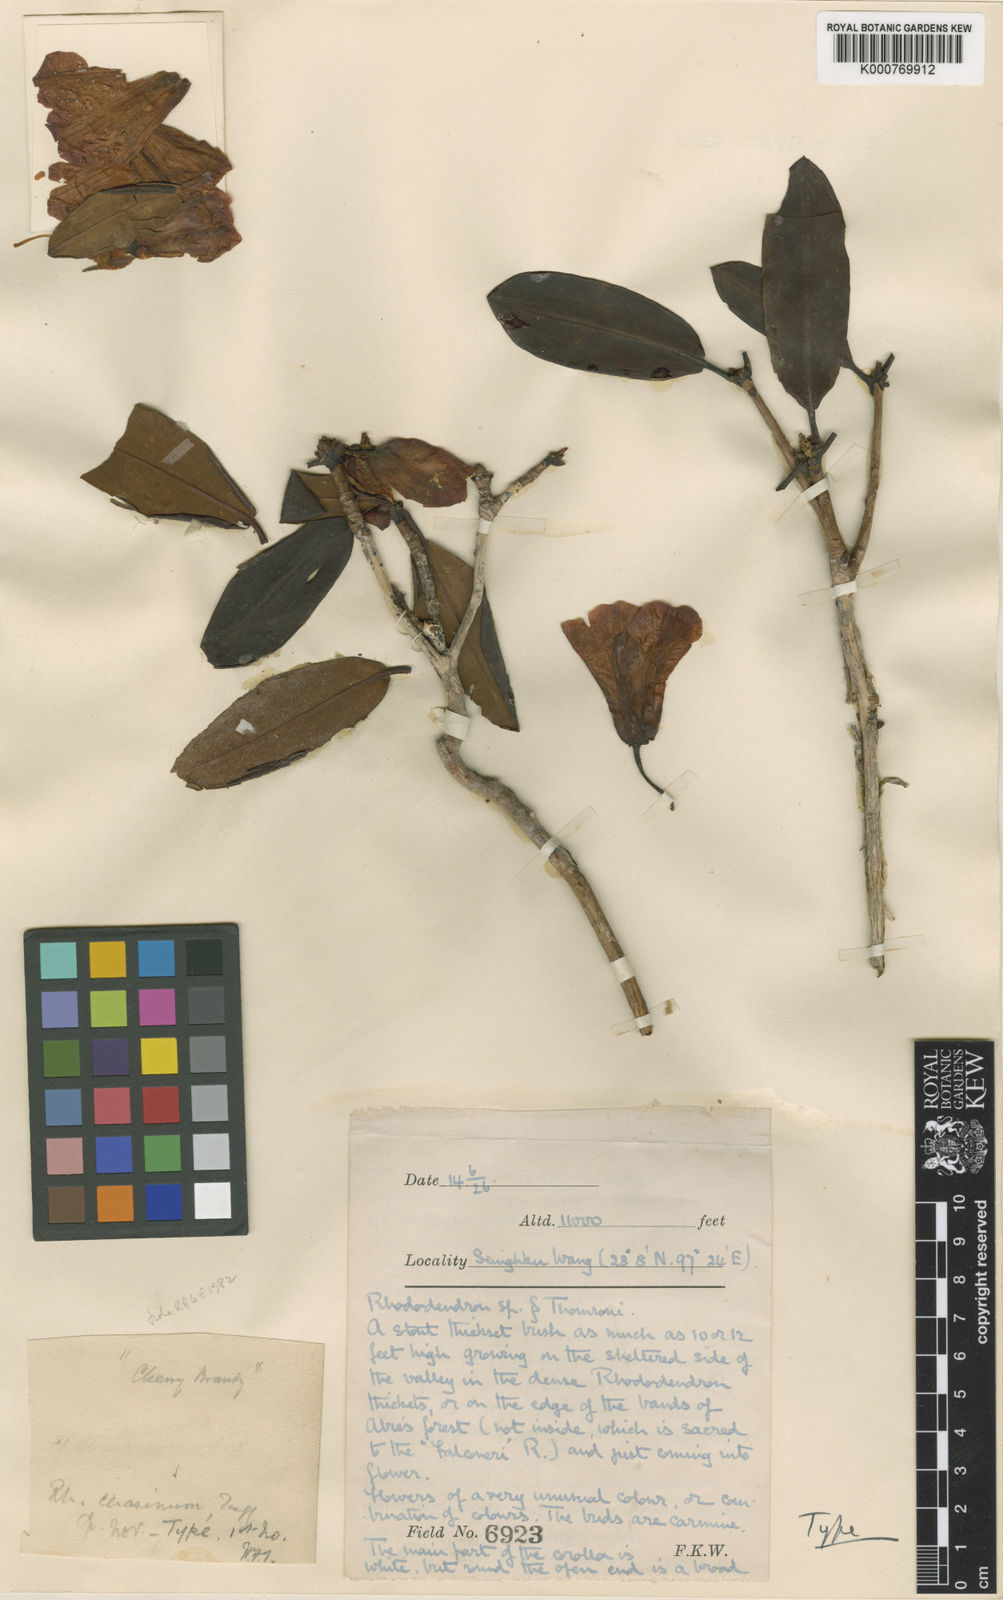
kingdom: Plantae
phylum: Tracheophyta
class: Magnoliopsida
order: Ericales
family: Ericaceae
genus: Rhododendron
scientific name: Rhododendron
